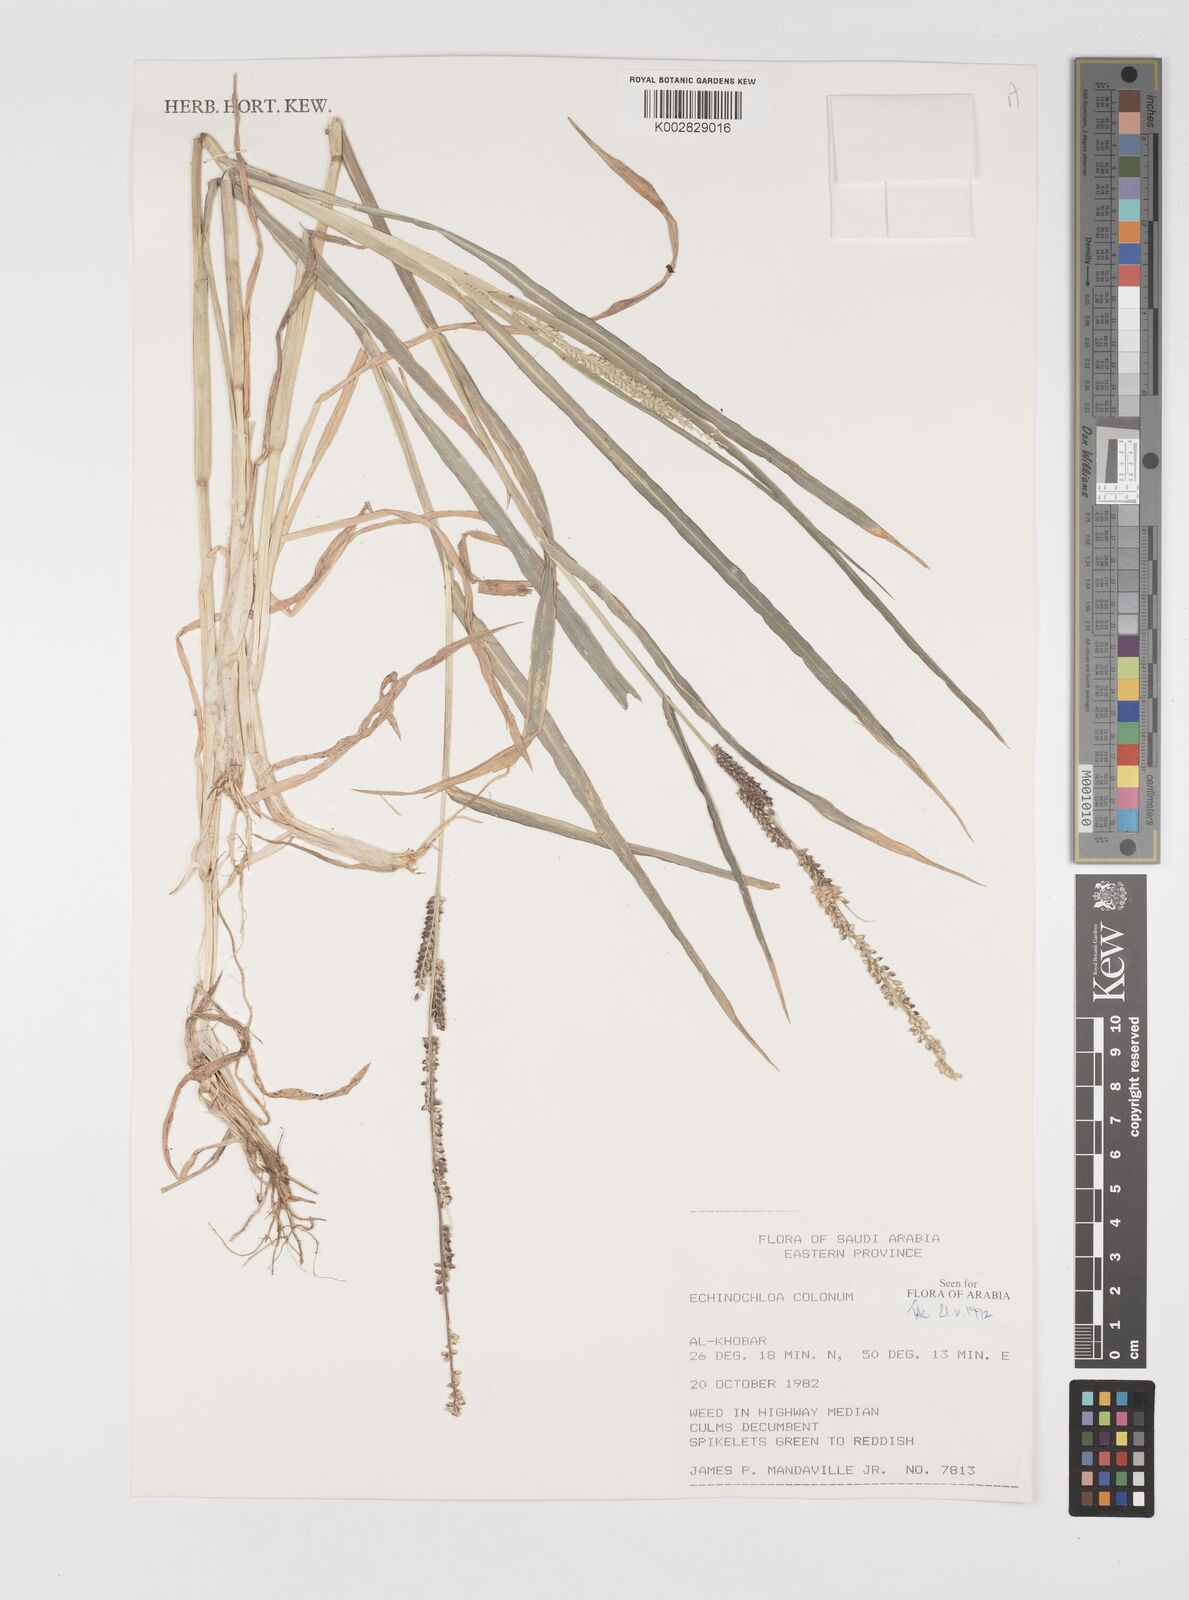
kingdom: Plantae
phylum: Tracheophyta
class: Liliopsida
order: Poales
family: Poaceae
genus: Echinochloa
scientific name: Echinochloa colonum
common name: Jungle rice
